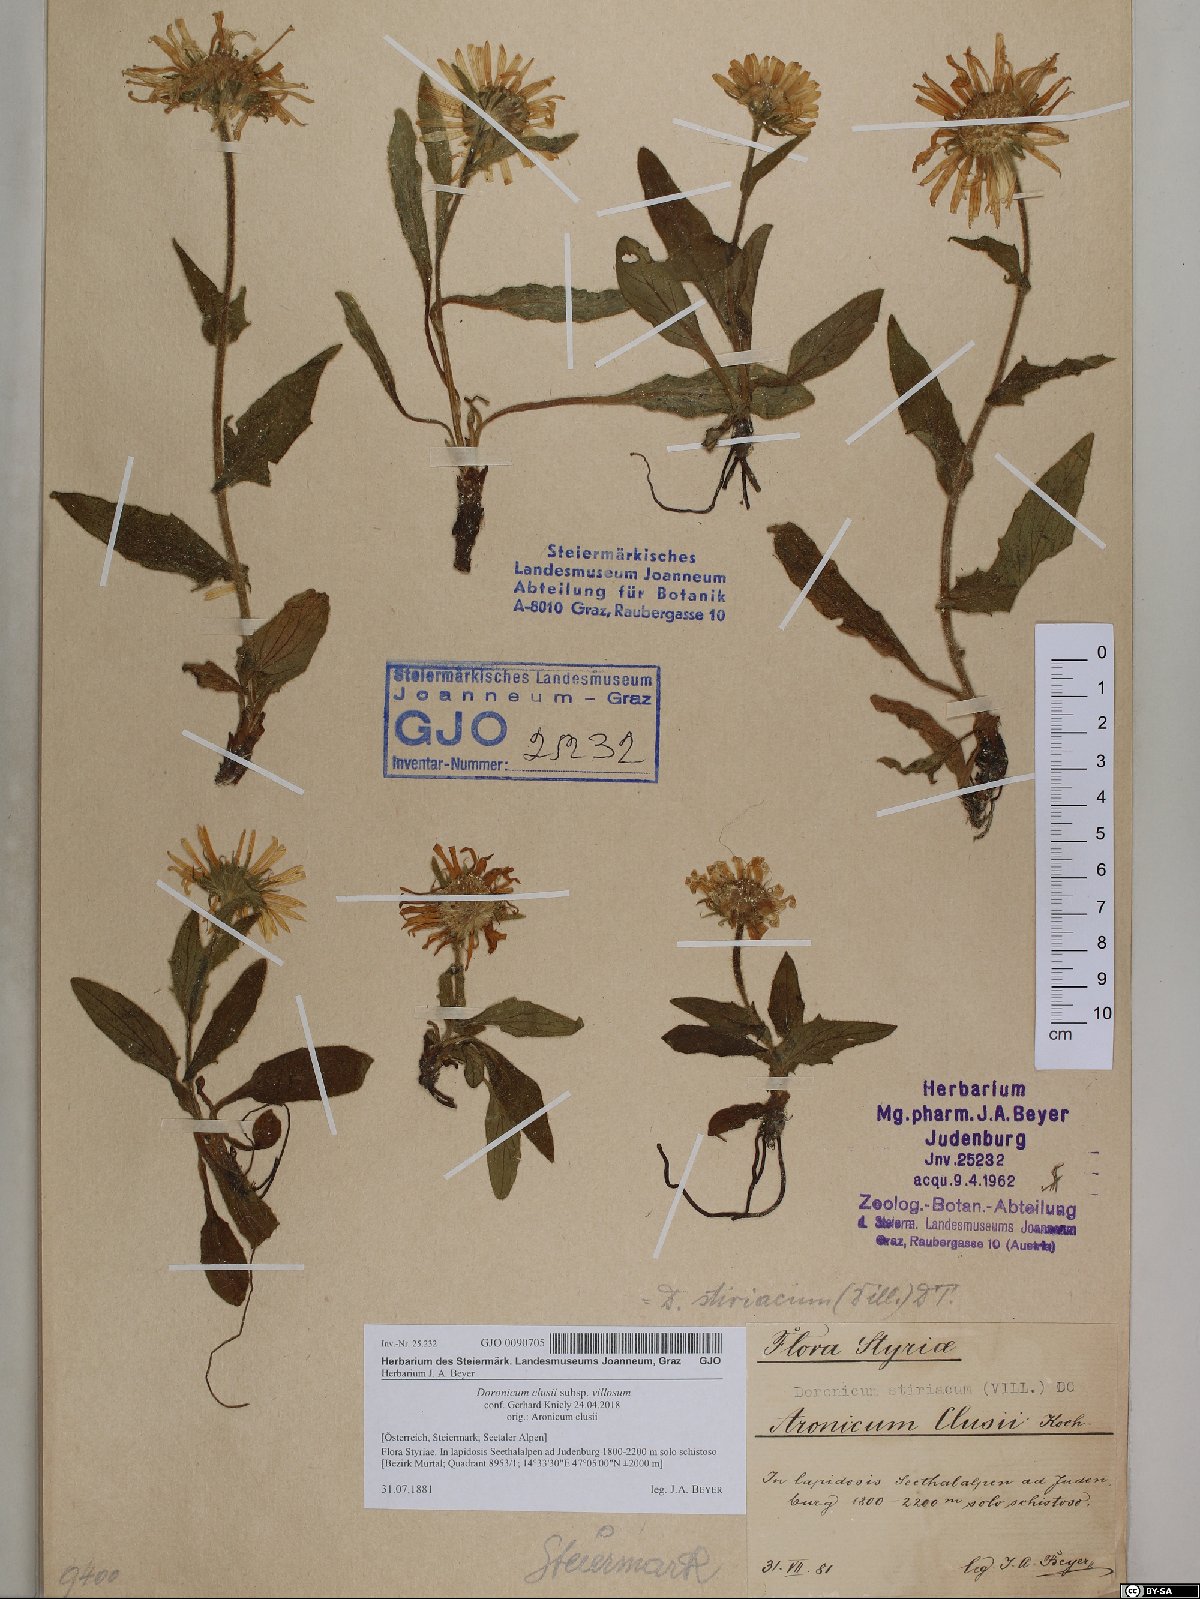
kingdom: Plantae
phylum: Tracheophyta
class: Magnoliopsida
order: Asterales
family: Asteraceae
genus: Doronicum
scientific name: Doronicum clusii
